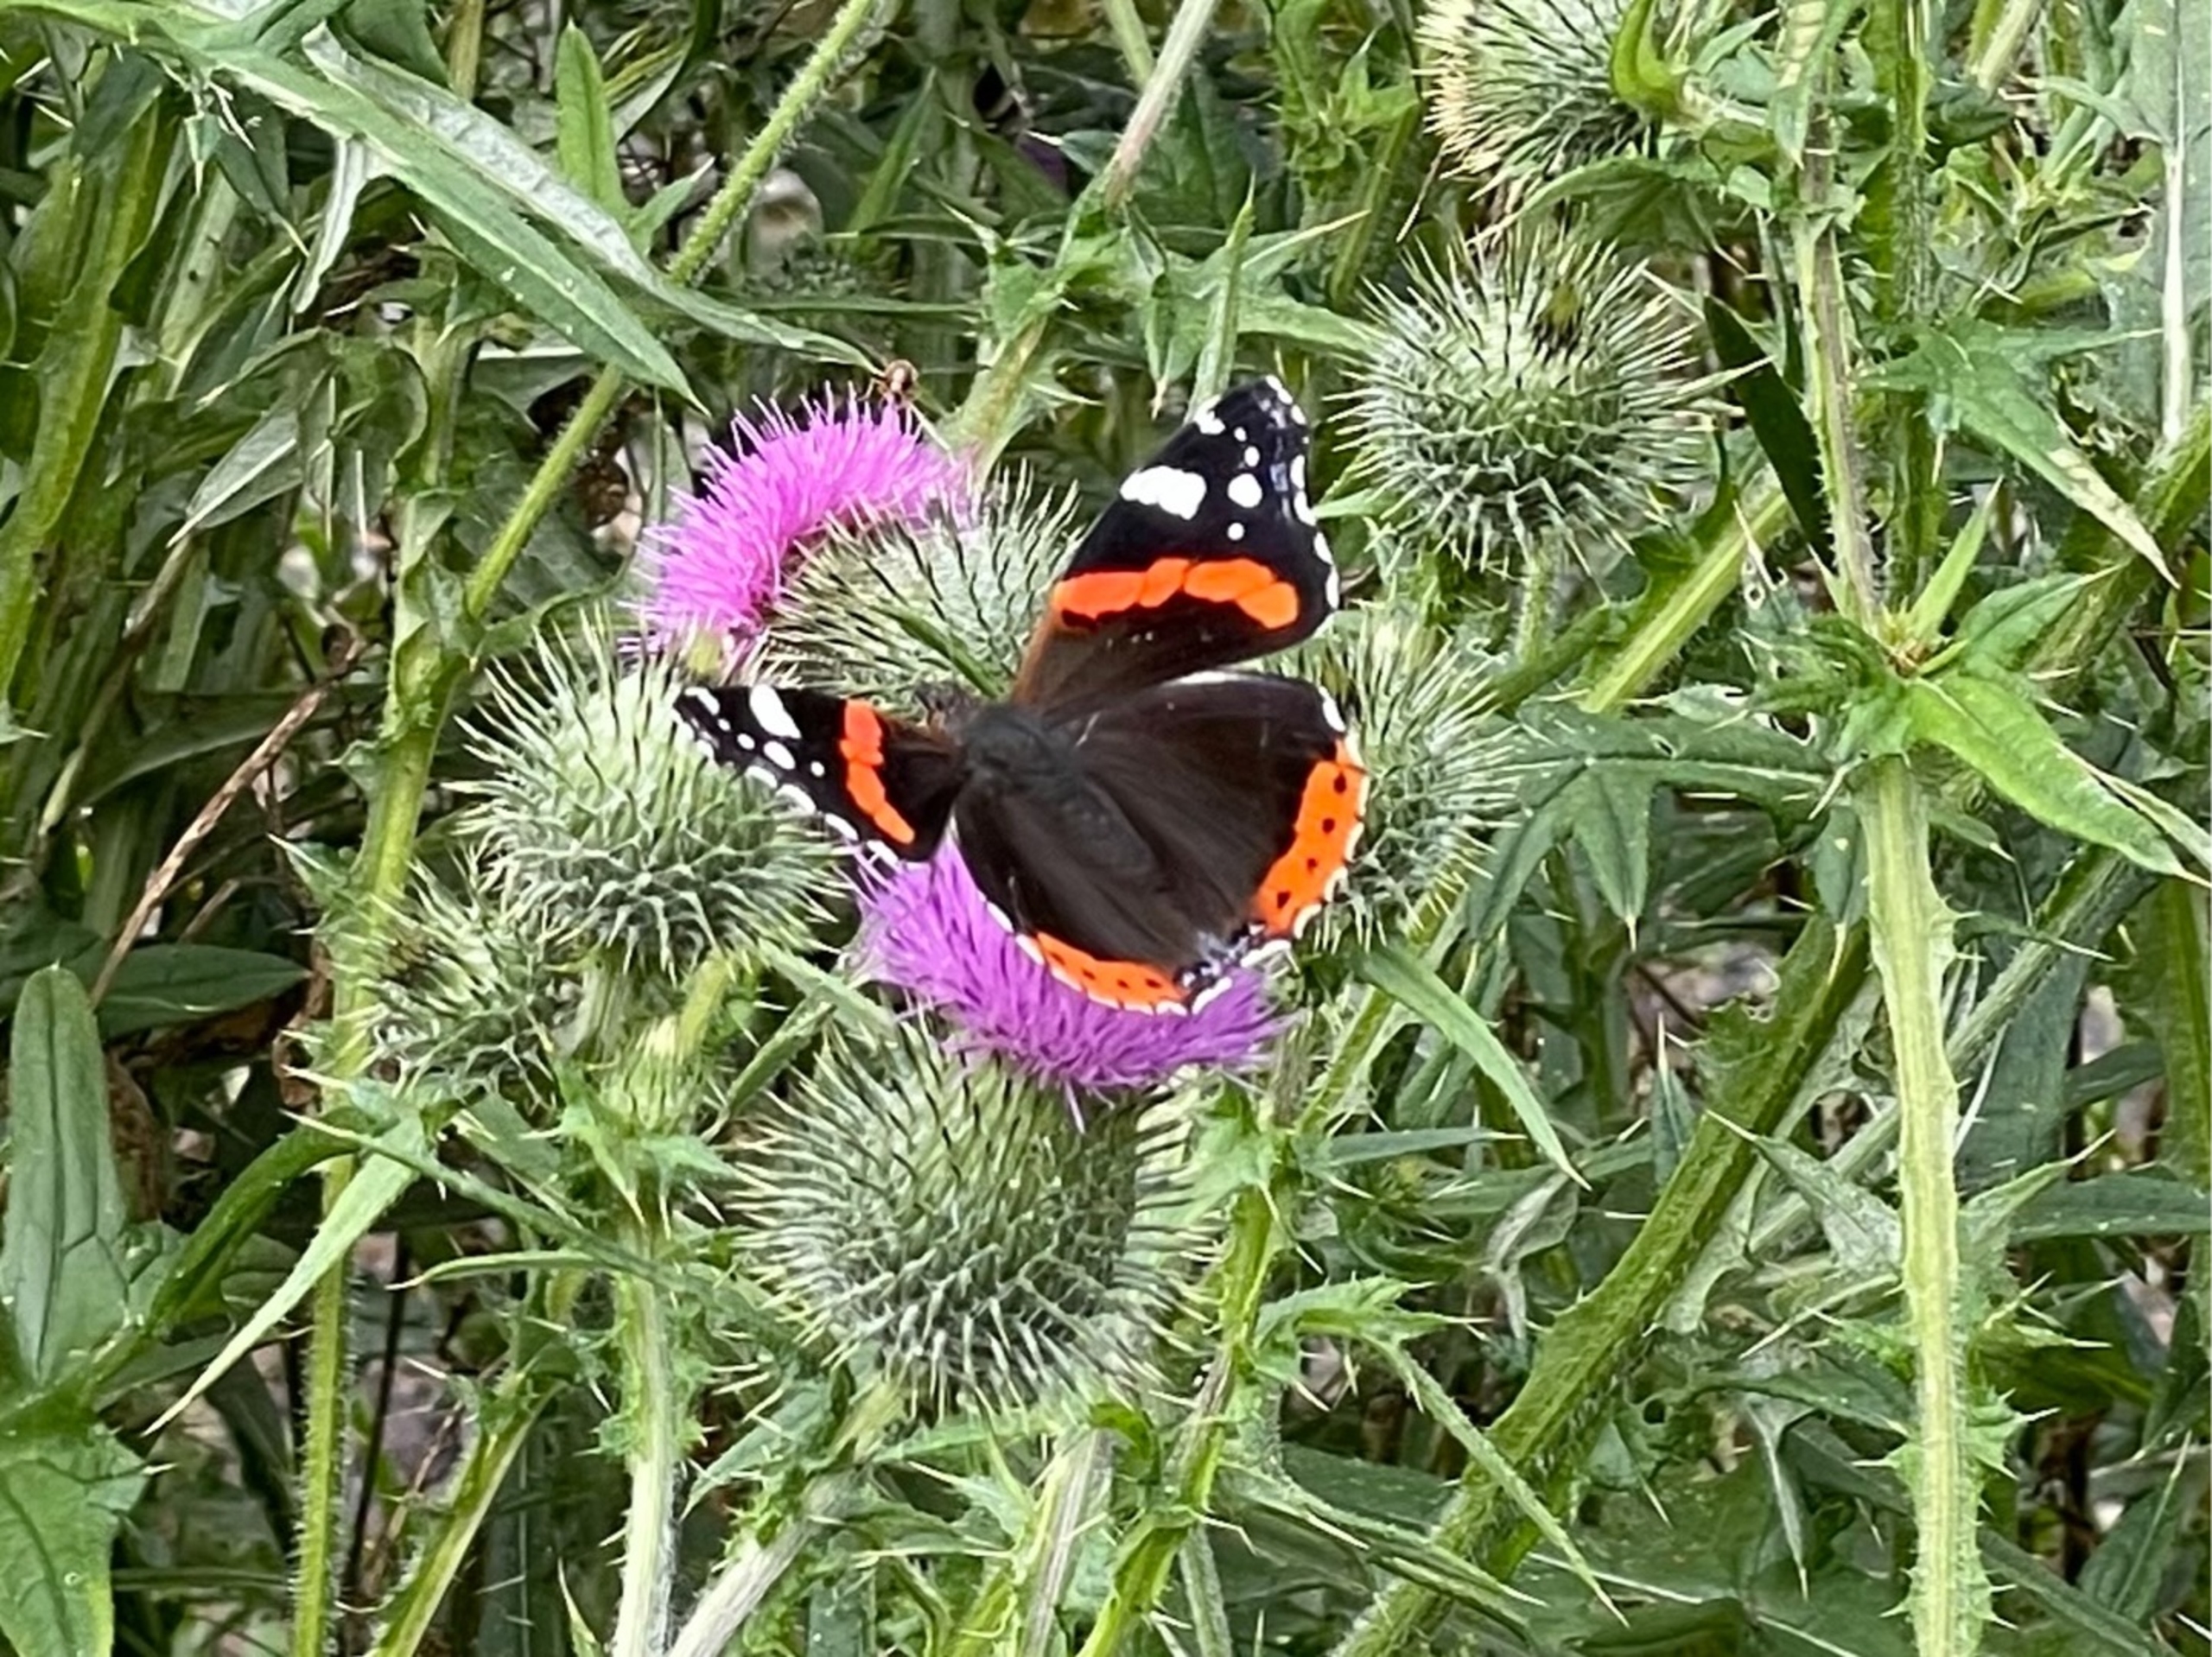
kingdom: Animalia
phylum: Arthropoda
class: Insecta
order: Lepidoptera
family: Nymphalidae
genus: Vanessa
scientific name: Vanessa atalanta
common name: Admiral
